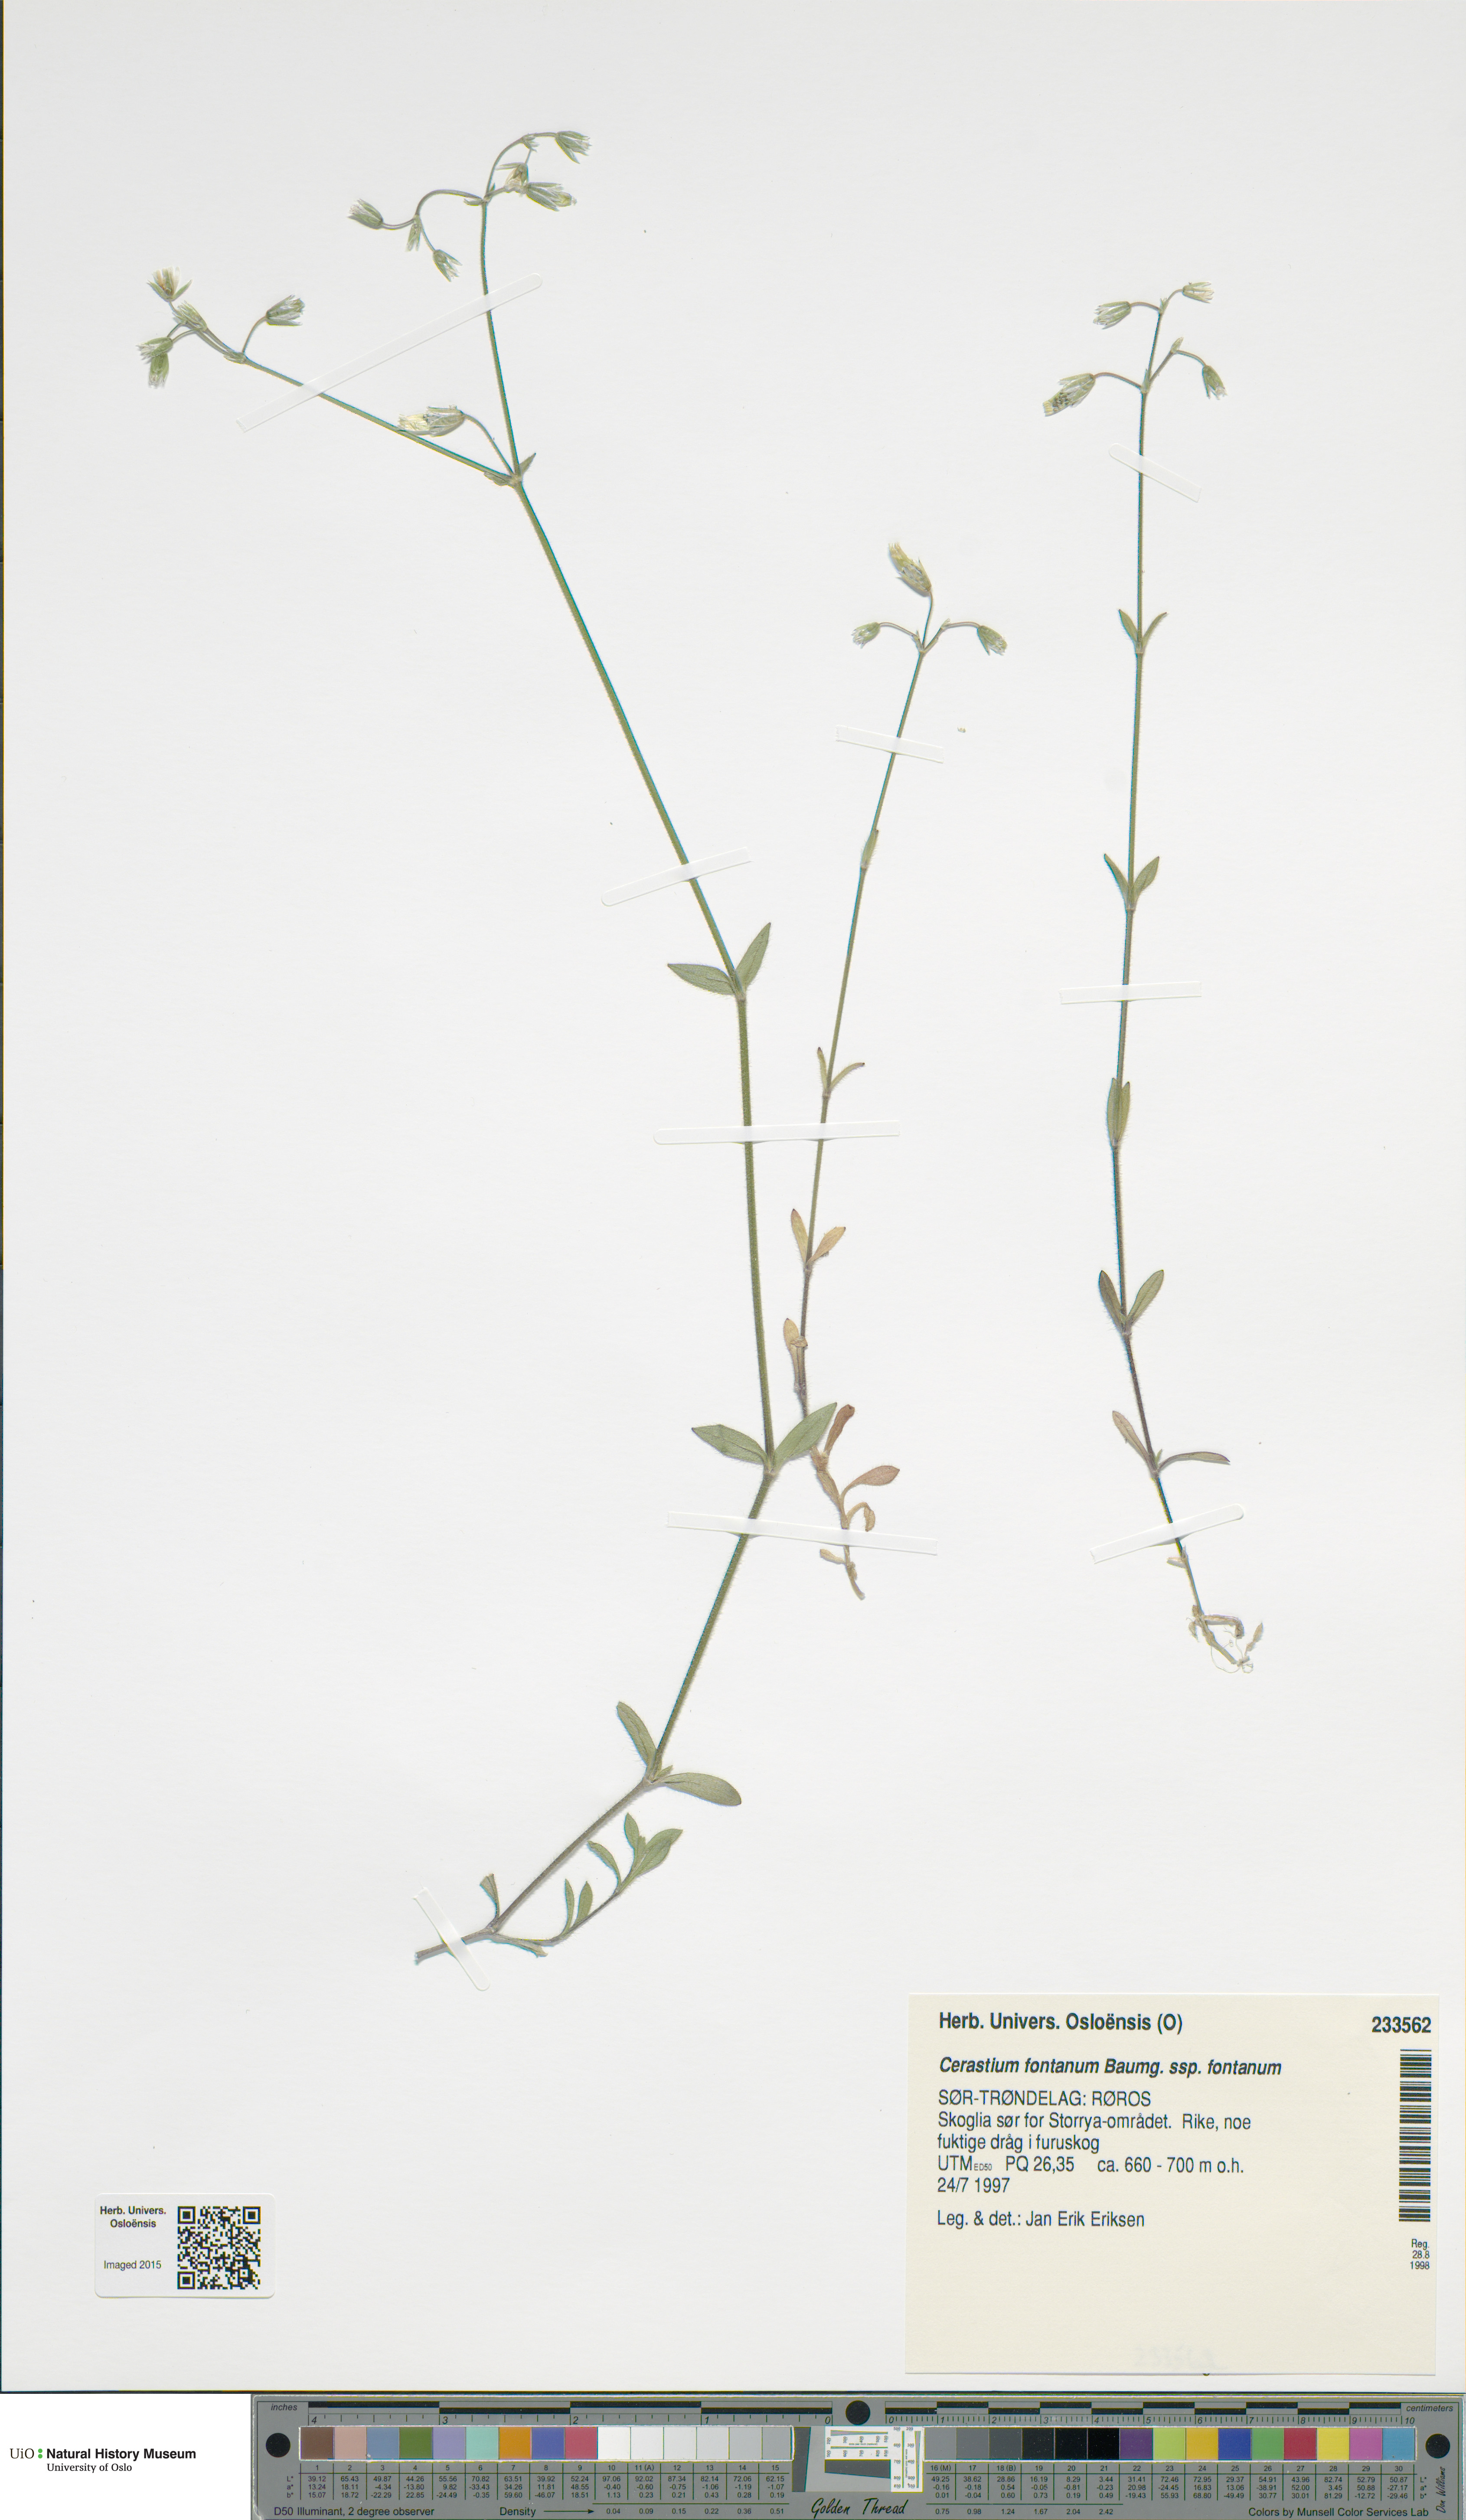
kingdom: Plantae
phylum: Tracheophyta
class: Magnoliopsida
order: Caryophyllales
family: Caryophyllaceae
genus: Cerastium
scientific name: Cerastium fontanum
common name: Common mouse-ear
